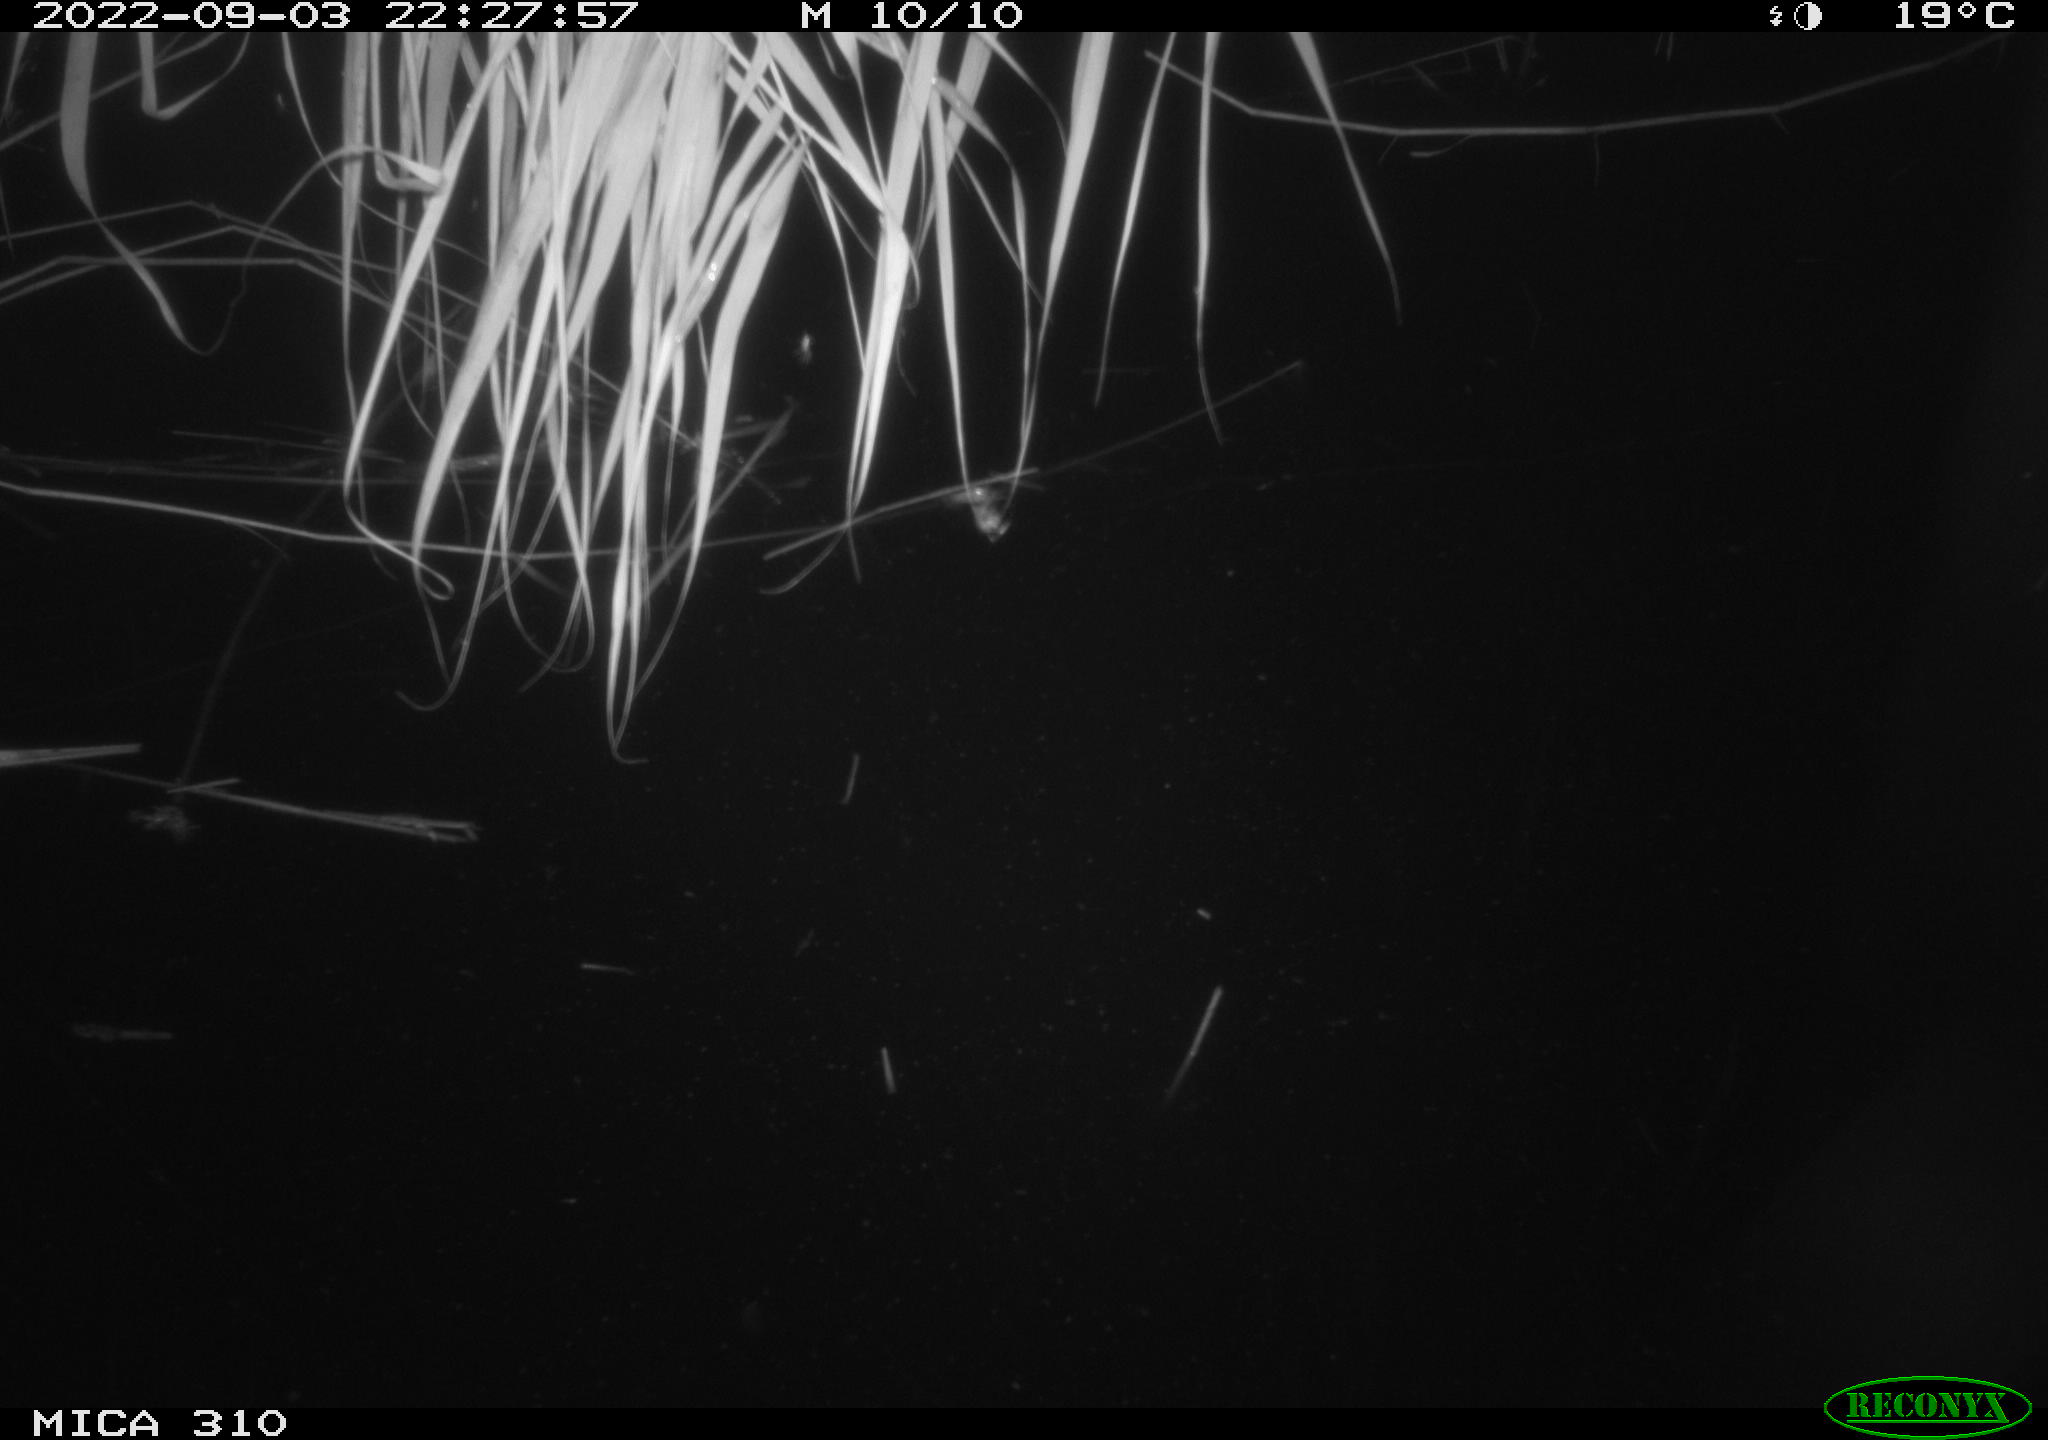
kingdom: Animalia
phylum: Chordata
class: Aves
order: Anseriformes
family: Anatidae
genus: Anas
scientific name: Anas platyrhynchos
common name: Mallard
